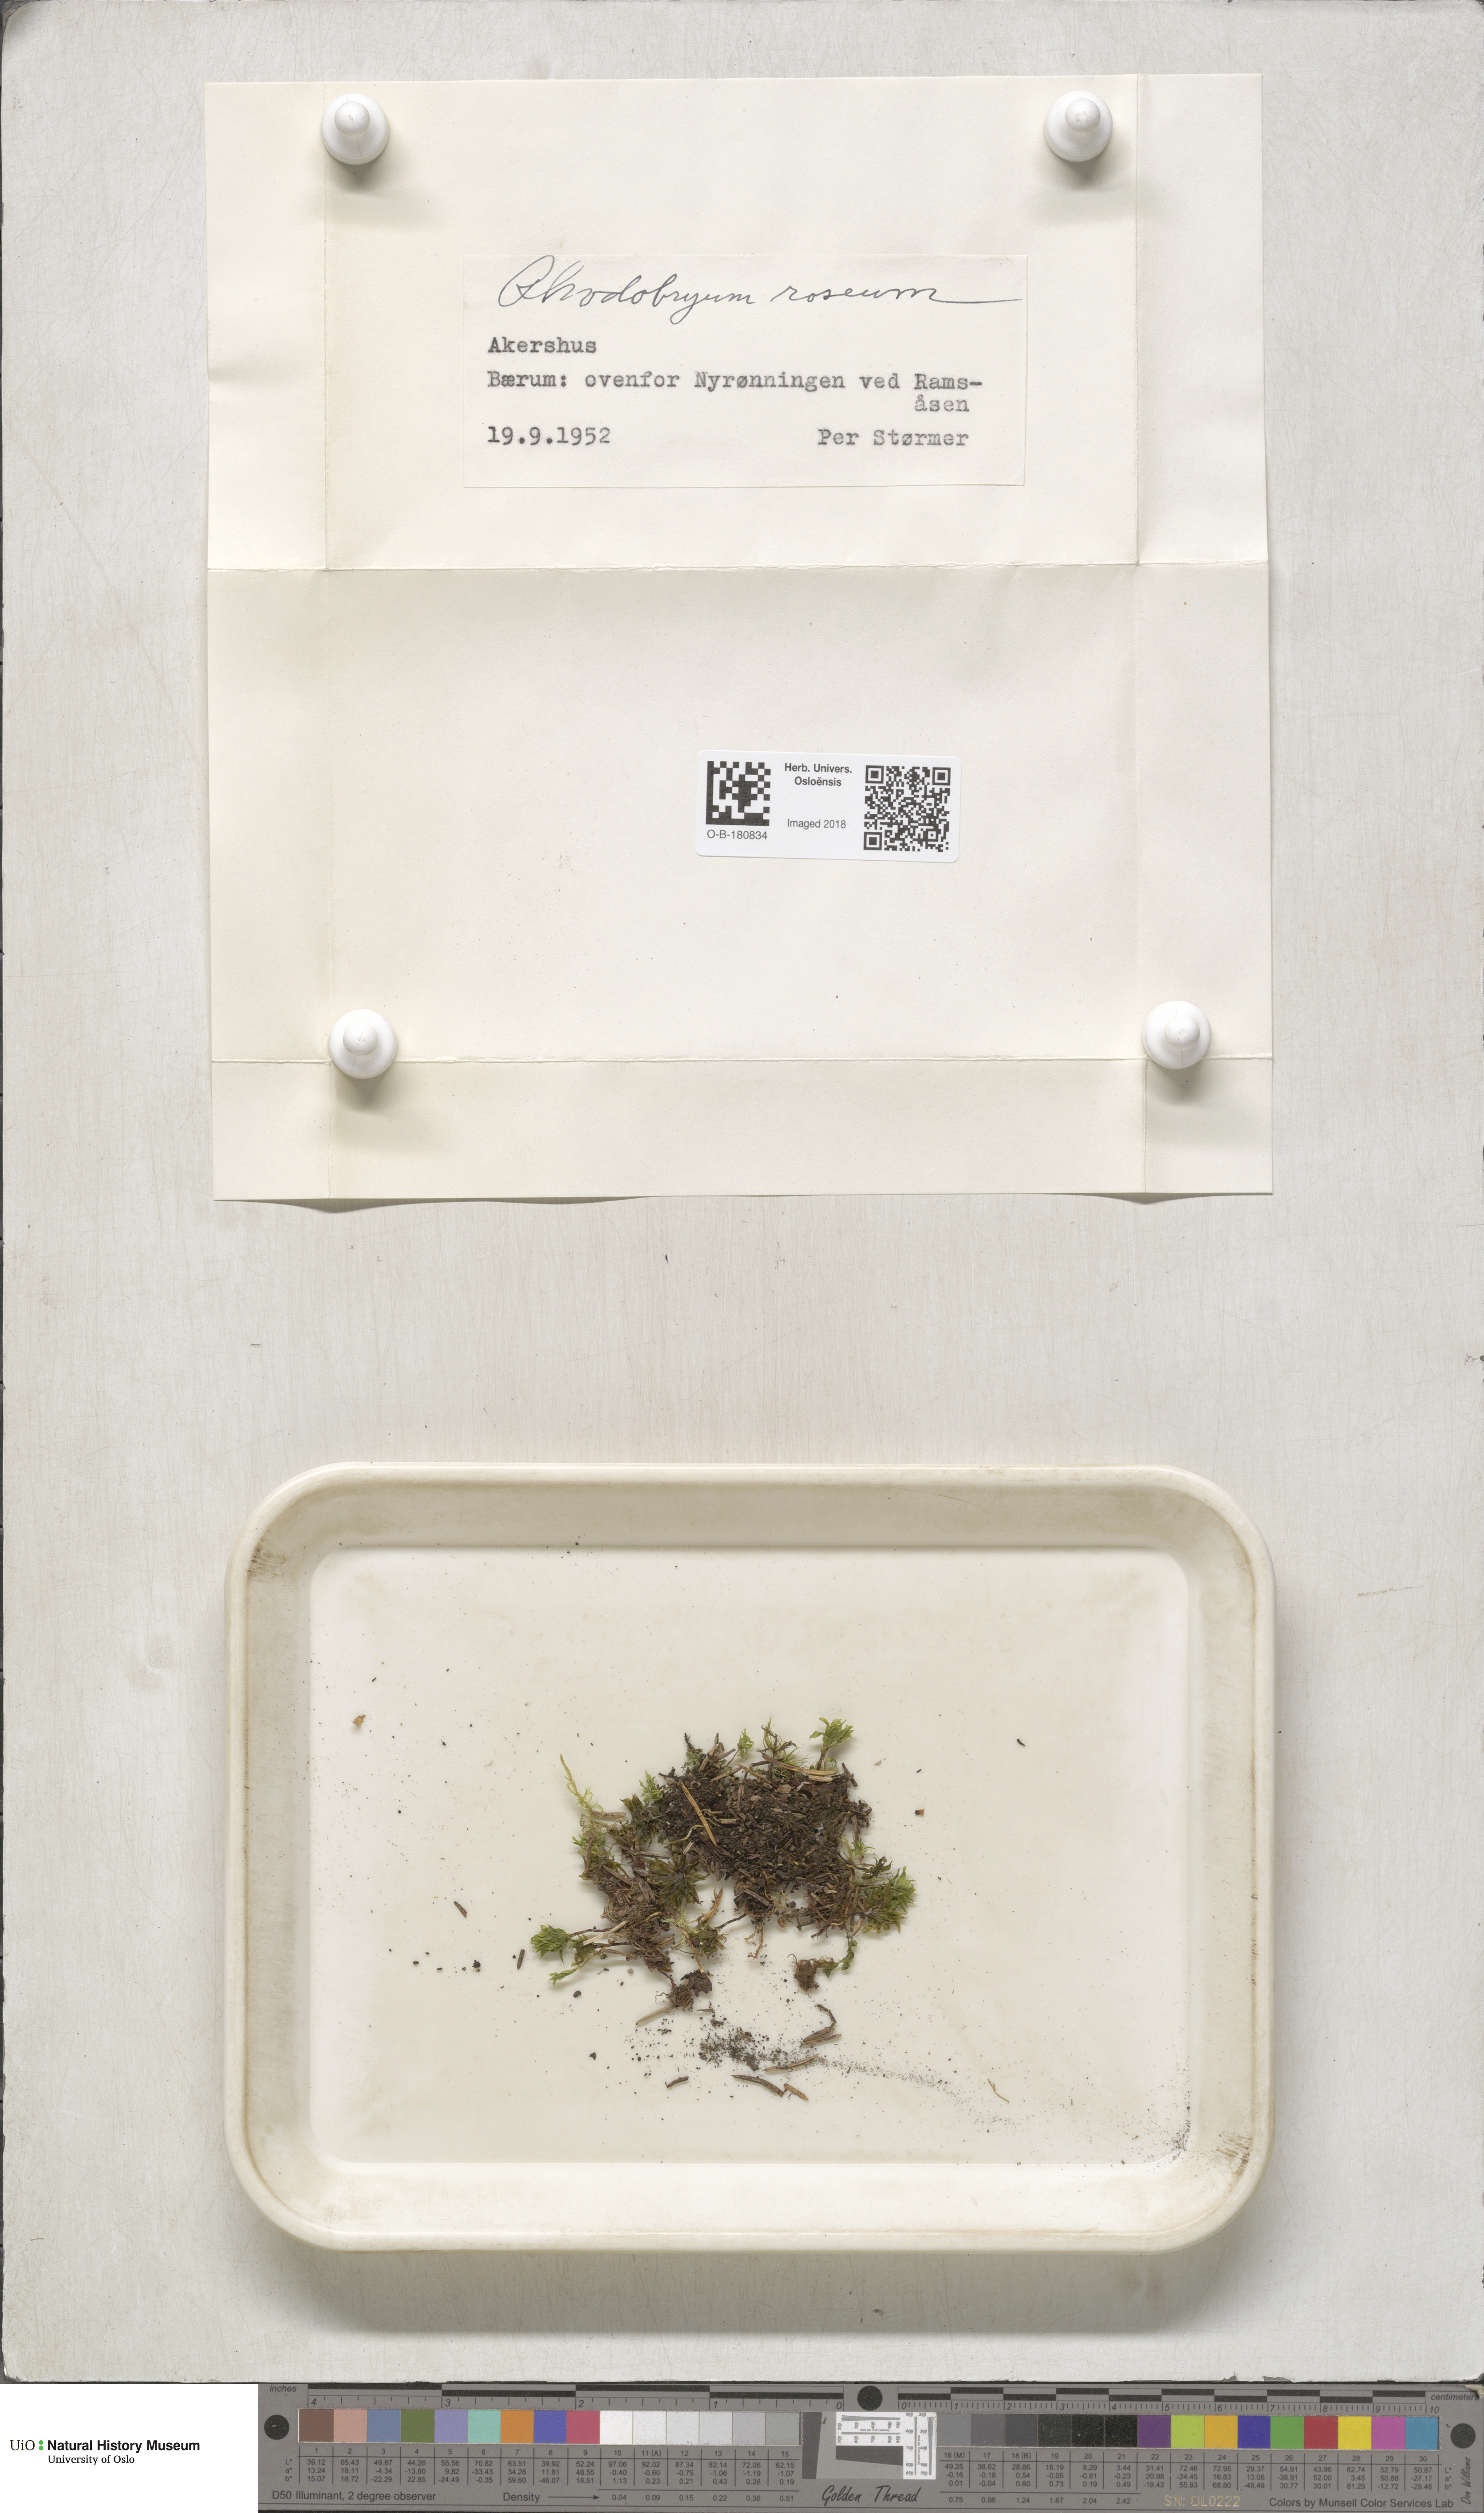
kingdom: Plantae
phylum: Bryophyta
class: Bryopsida
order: Bryales
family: Bryaceae
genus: Rhodobryum
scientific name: Rhodobryum roseum
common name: Rose-moss
